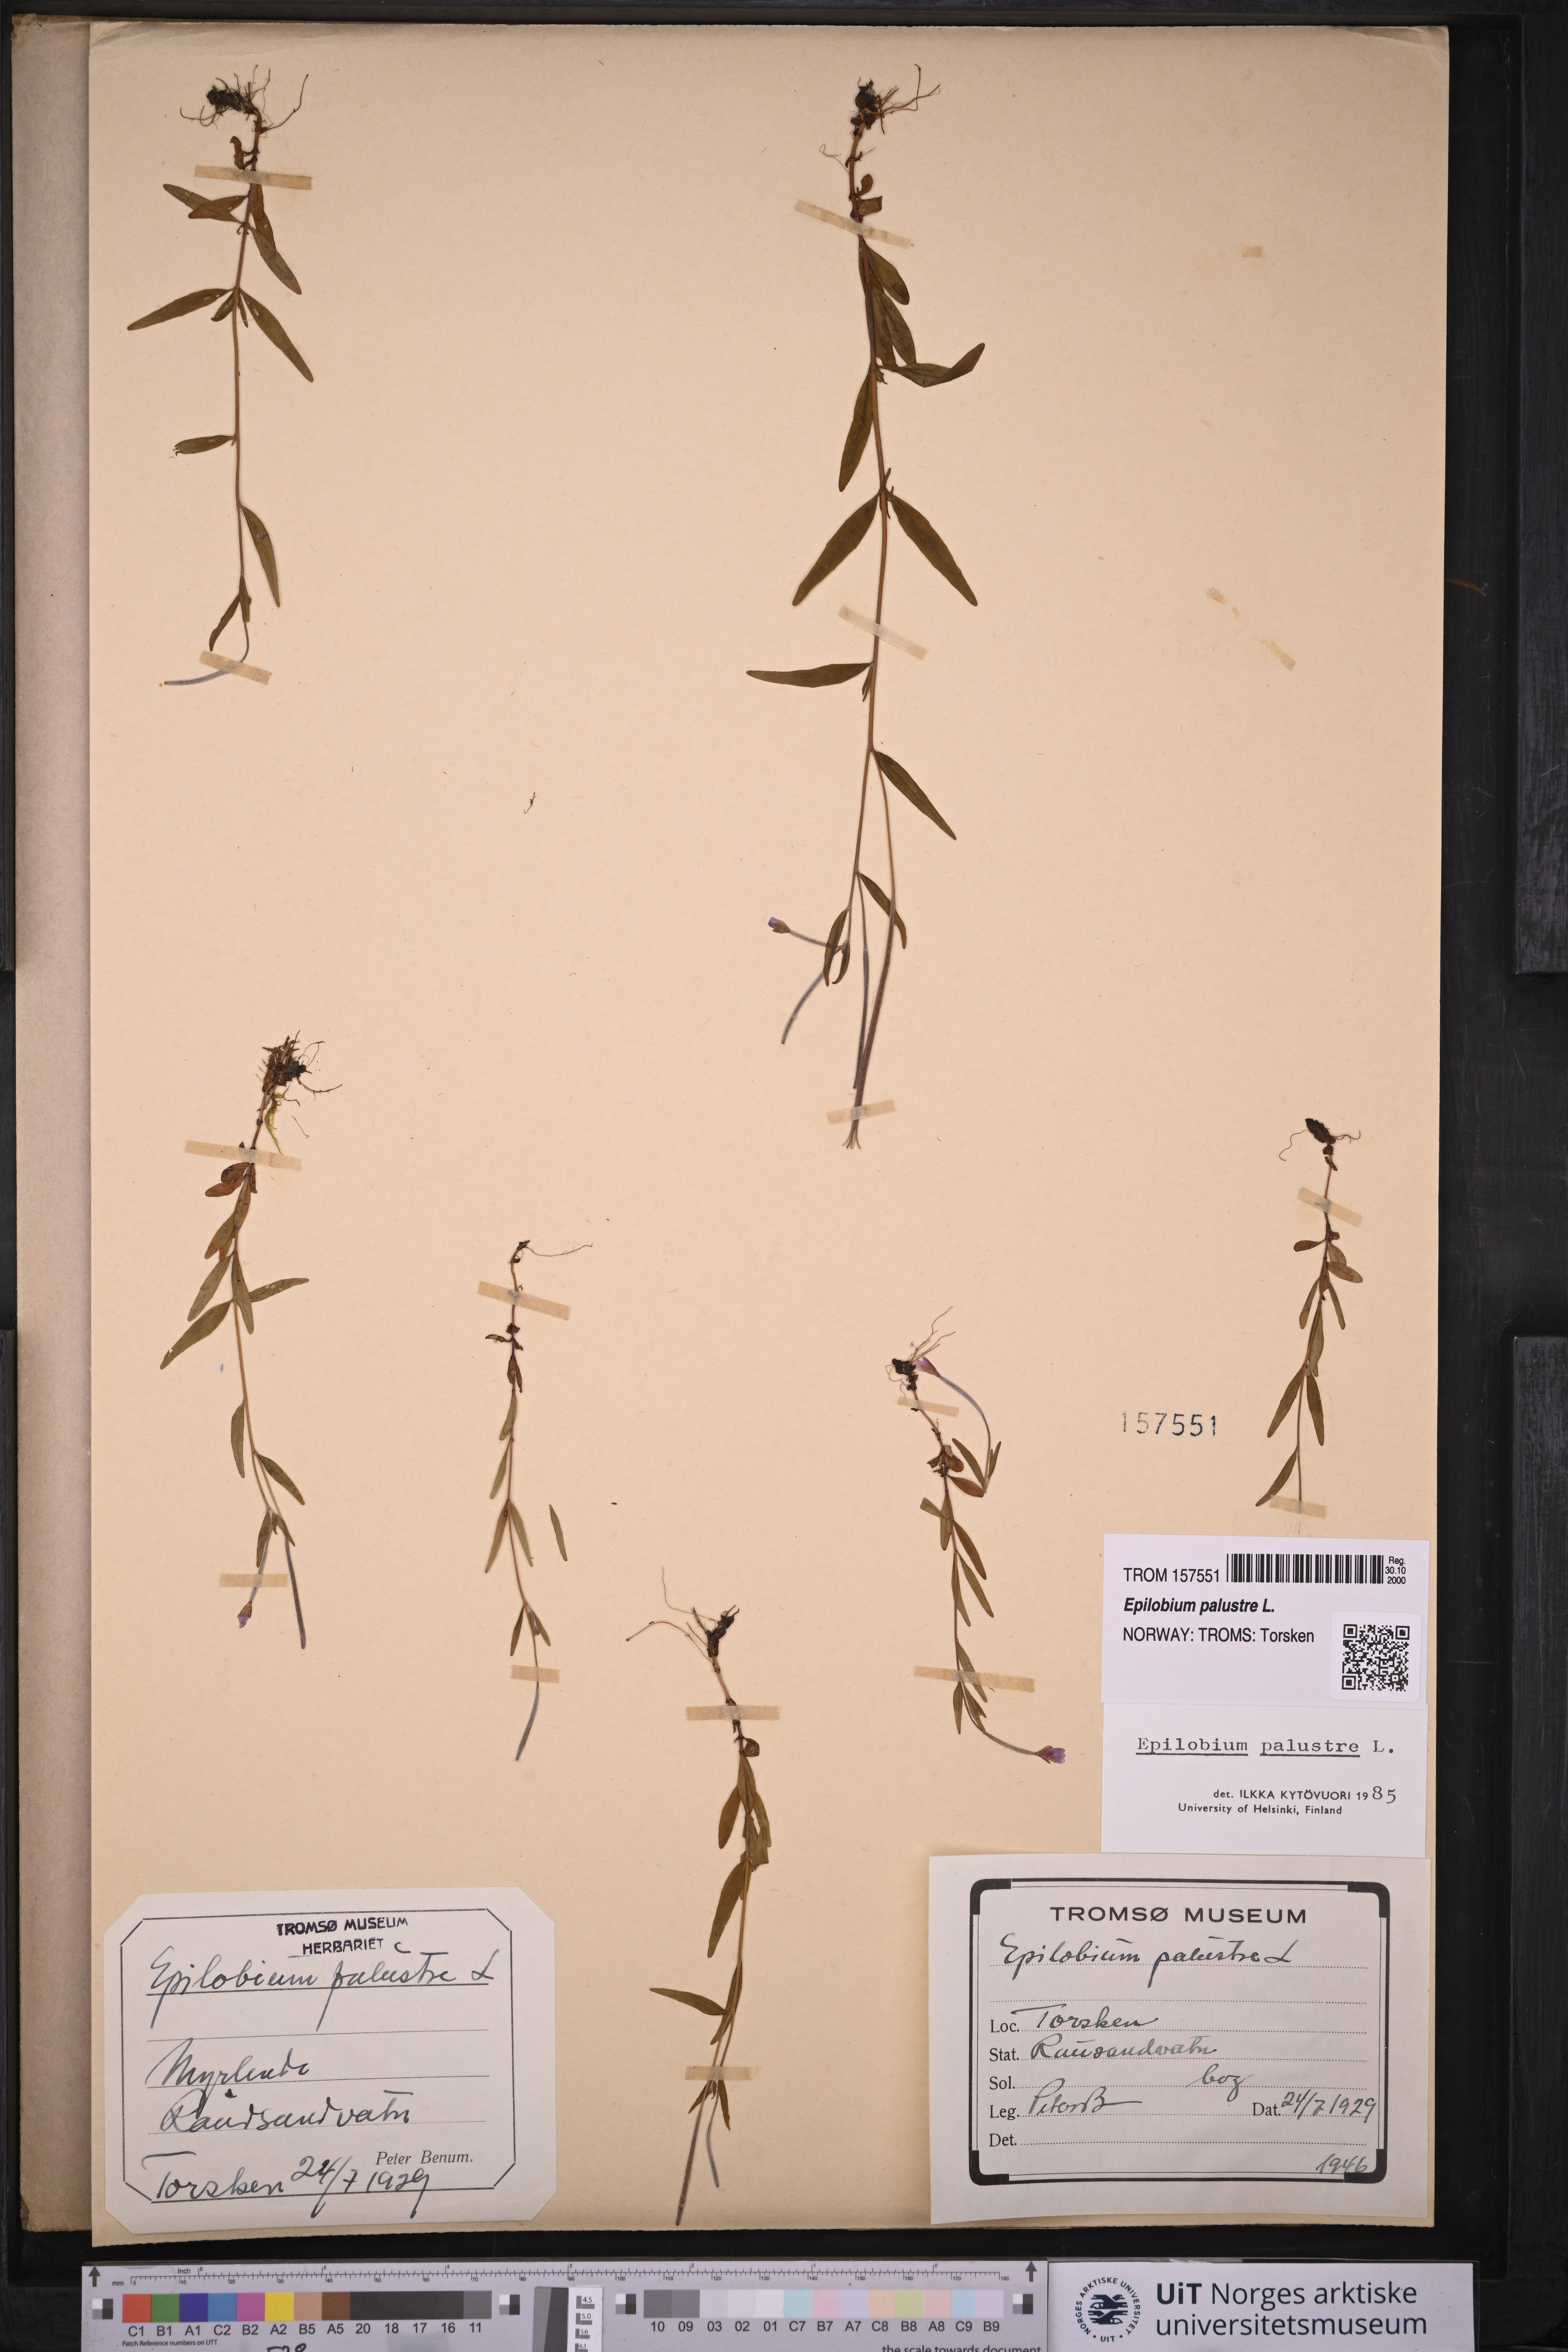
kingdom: Plantae
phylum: Tracheophyta
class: Magnoliopsida
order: Myrtales
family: Onagraceae
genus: Epilobium
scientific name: Epilobium palustre
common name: Marsh willowherb
